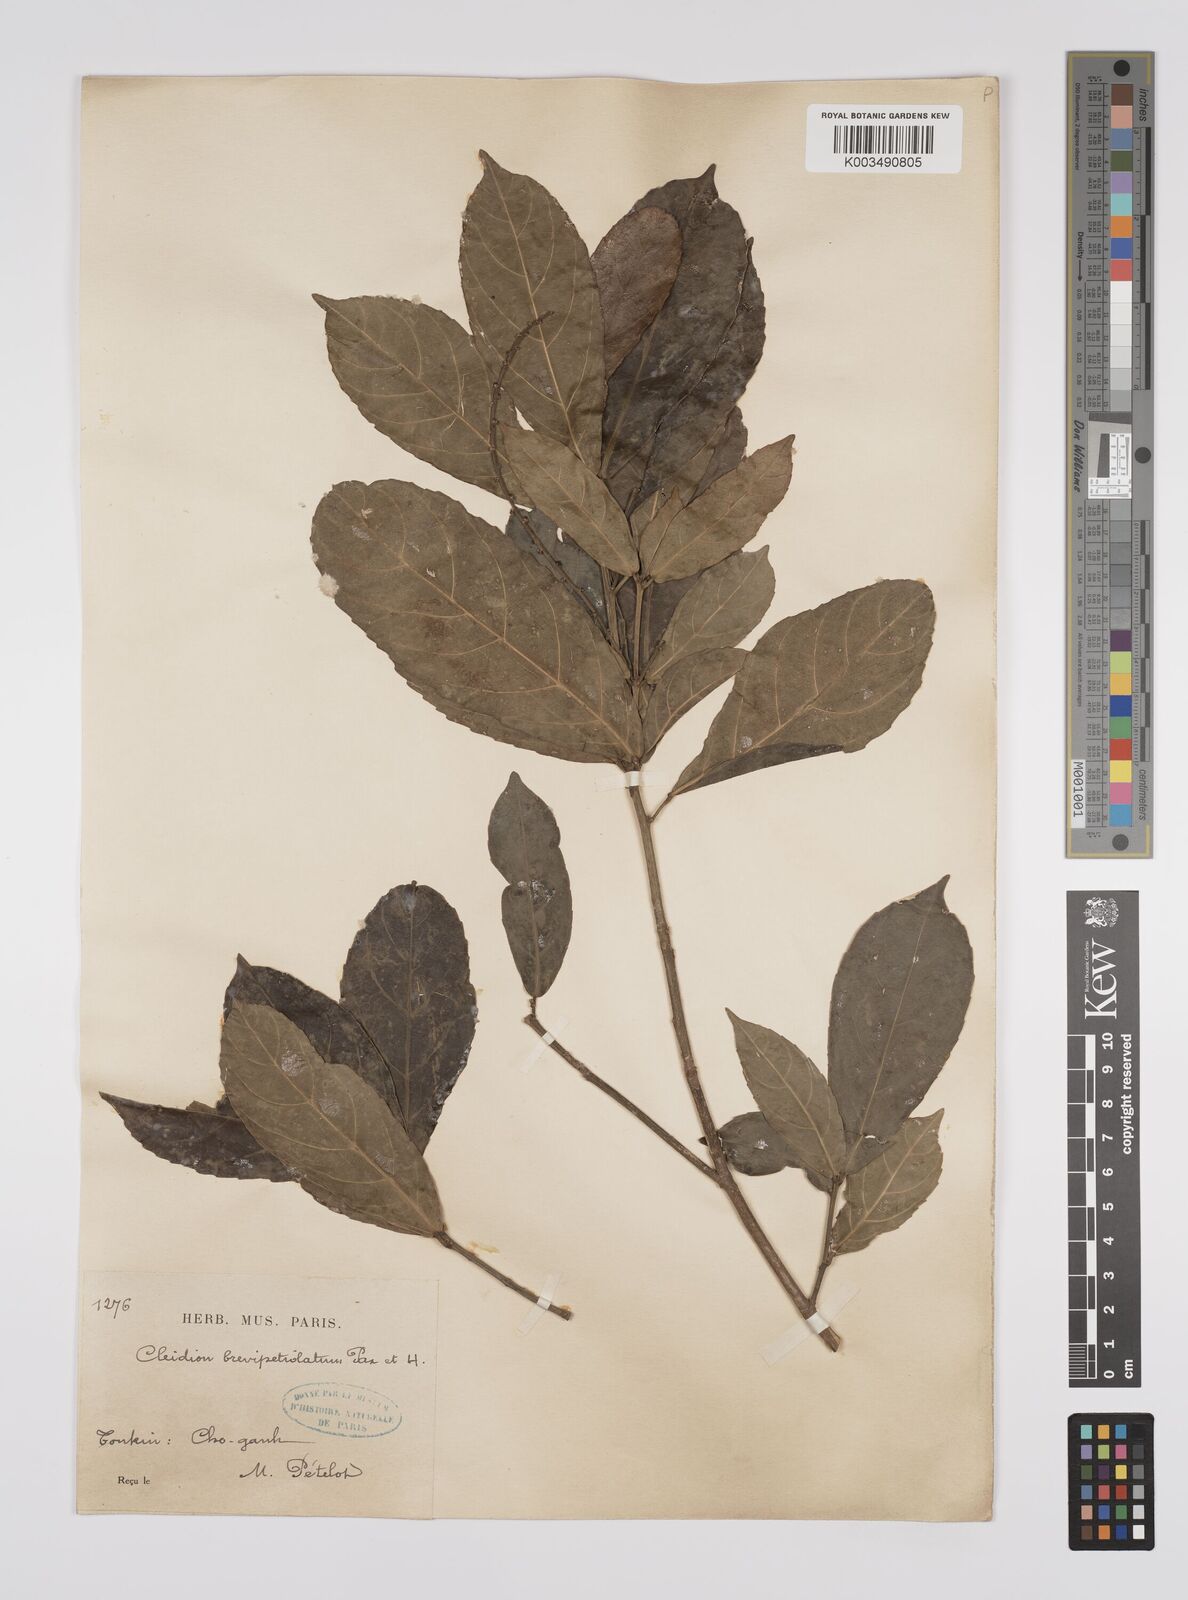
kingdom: Plantae
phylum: Tracheophyta
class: Magnoliopsida
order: Malpighiales
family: Euphorbiaceae
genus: Cleidion
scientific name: Cleidion brevipetiolatum
